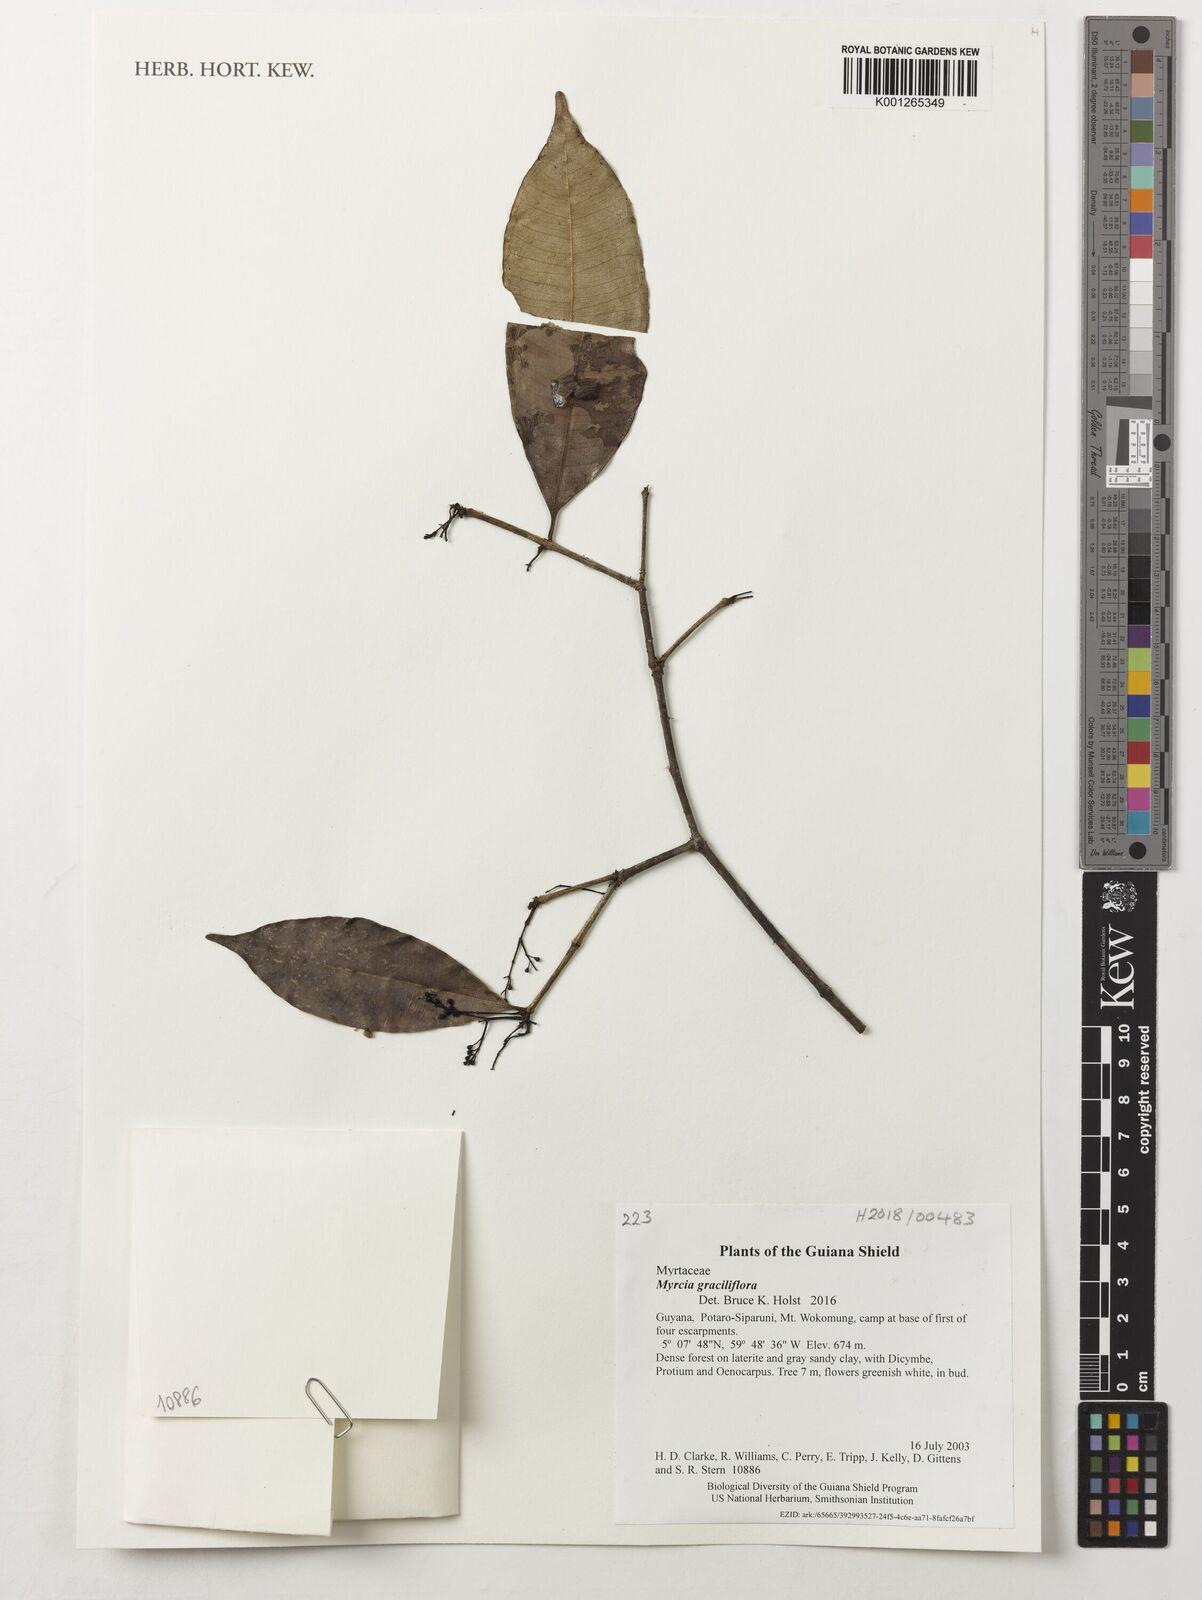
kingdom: Plantae
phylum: Tracheophyta
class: Magnoliopsida
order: Myrtales
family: Myrtaceae
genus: Myrcia
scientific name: Myrcia graciliflora
